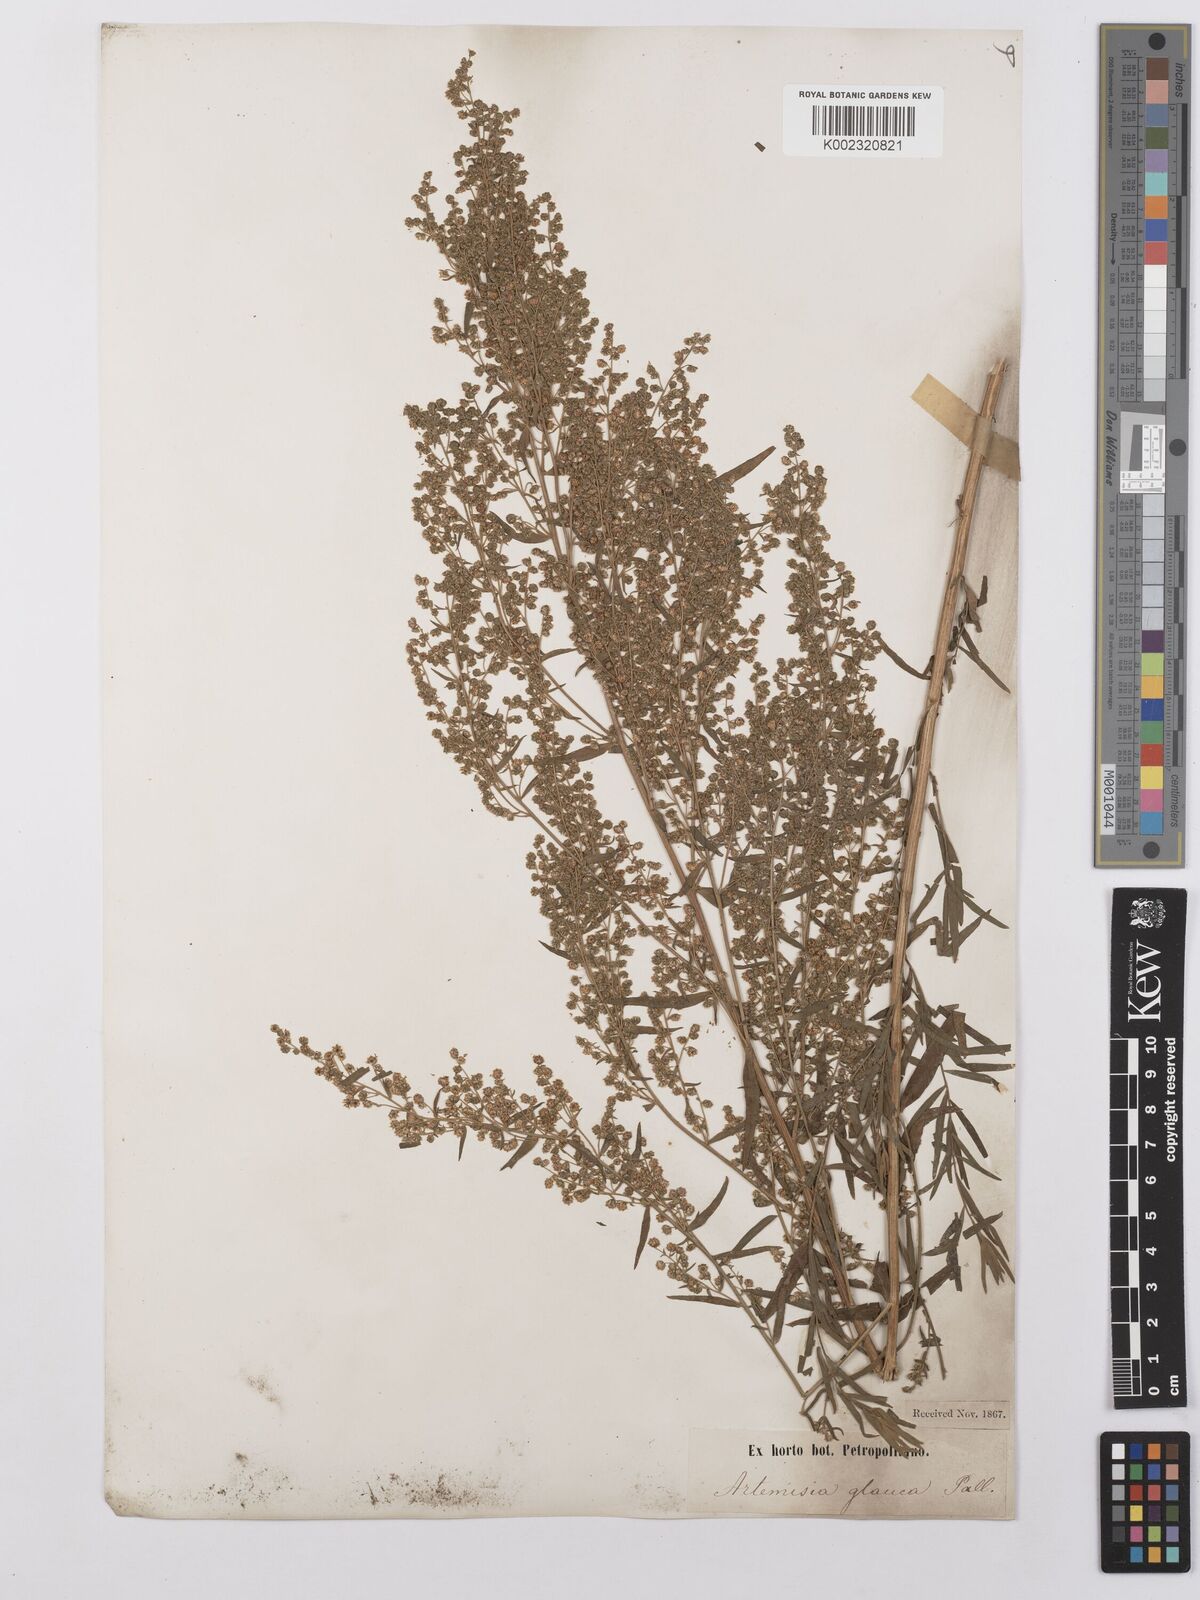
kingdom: Plantae
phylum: Tracheophyta
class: Magnoliopsida
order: Asterales
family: Asteraceae
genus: Artemisia
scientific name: Artemisia glauca
